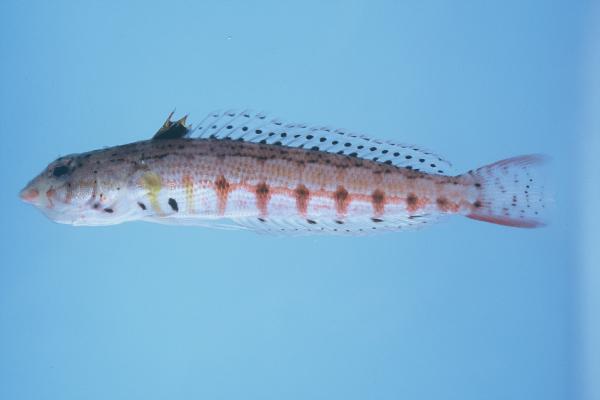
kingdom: Animalia
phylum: Chordata
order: Perciformes
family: Pinguipedidae
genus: Parapercis
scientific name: Parapercis punctulata
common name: Spotted sandperch
